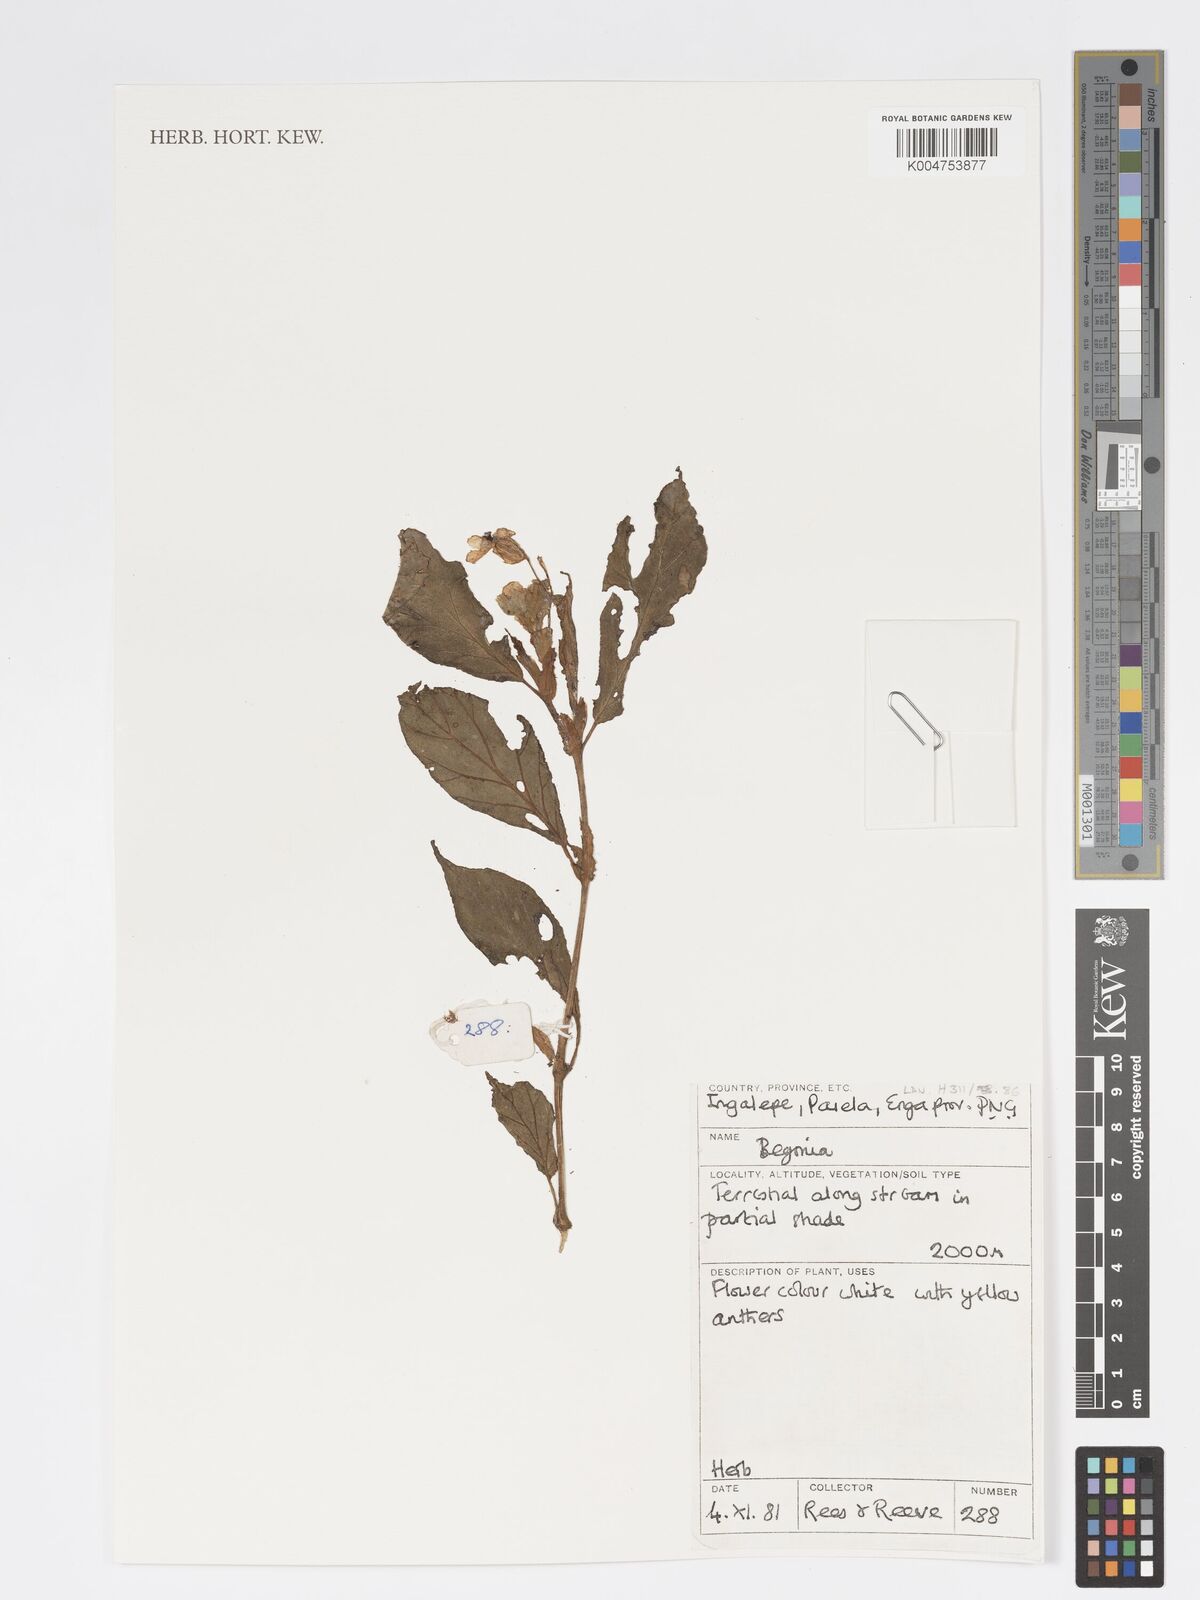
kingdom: Plantae
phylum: Tracheophyta
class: Magnoliopsida
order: Cucurbitales
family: Begoniaceae
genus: Begonia
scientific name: Begonia
